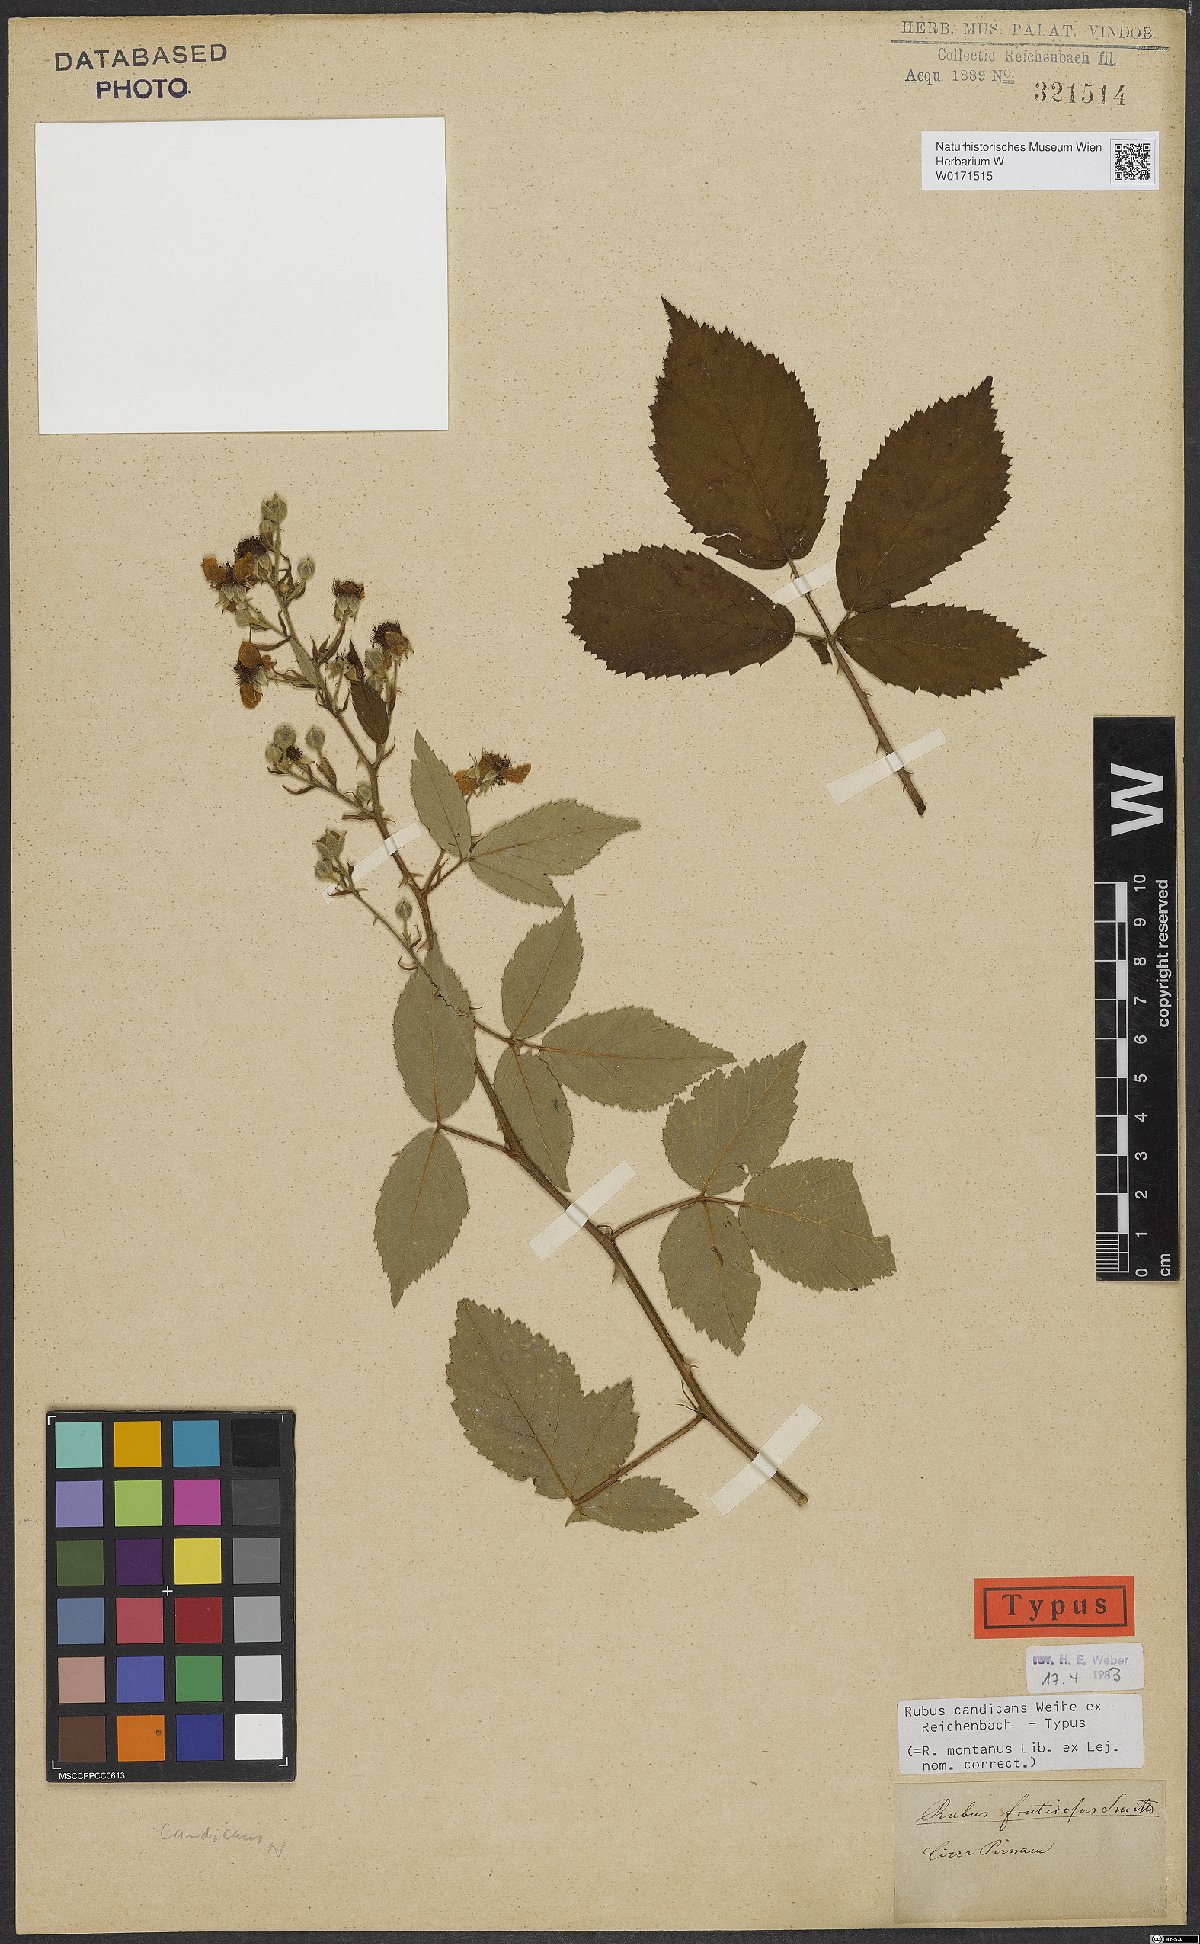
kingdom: Plantae
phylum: Tracheophyta
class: Magnoliopsida
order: Rosales
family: Rosaceae
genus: Rubus
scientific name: Rubus silesiacus
